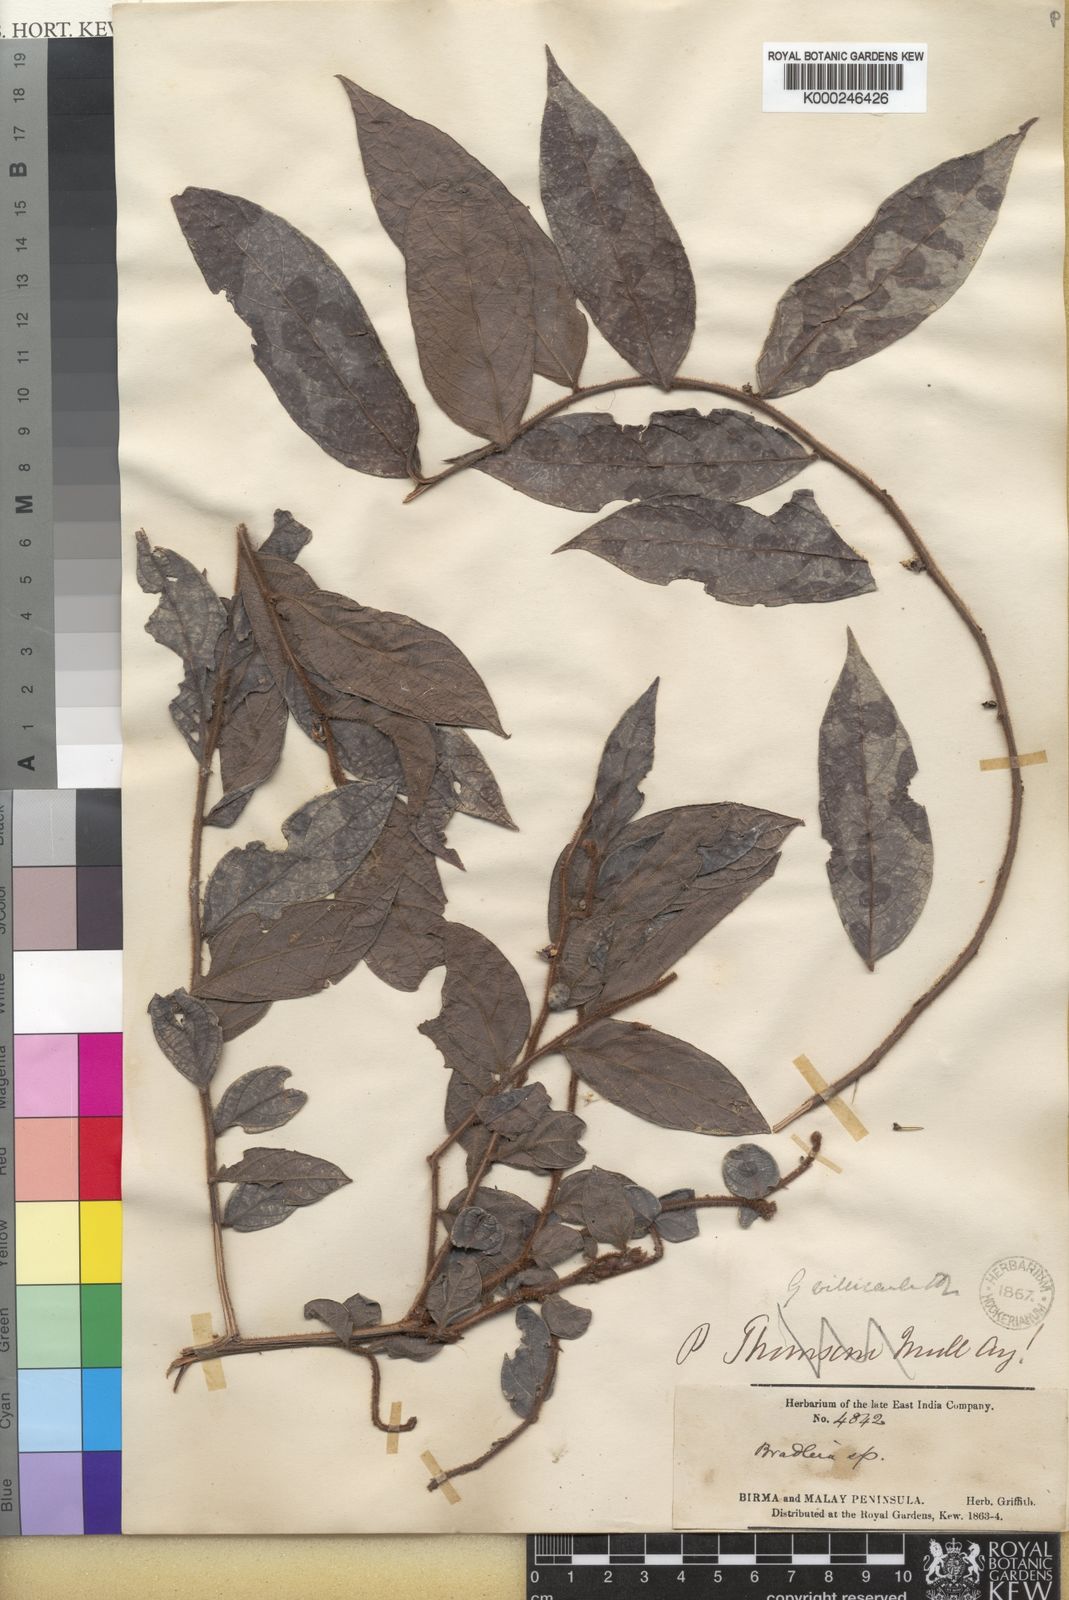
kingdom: Plantae
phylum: Tracheophyta
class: Magnoliopsida
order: Malpighiales
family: Phyllanthaceae
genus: Glochidion
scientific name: Glochidion eriocarpum
